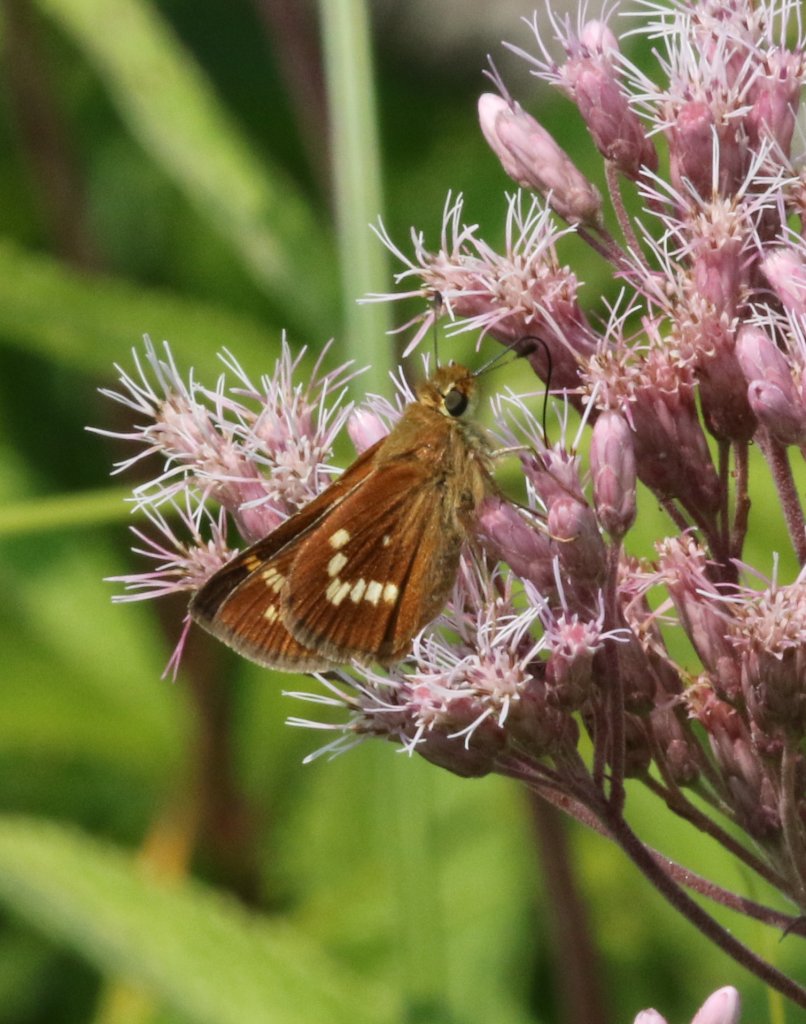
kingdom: Animalia
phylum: Arthropoda
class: Insecta
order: Lepidoptera
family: Hesperiidae
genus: Hesperia
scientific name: Hesperia leonardus
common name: Leonard's Skipper
